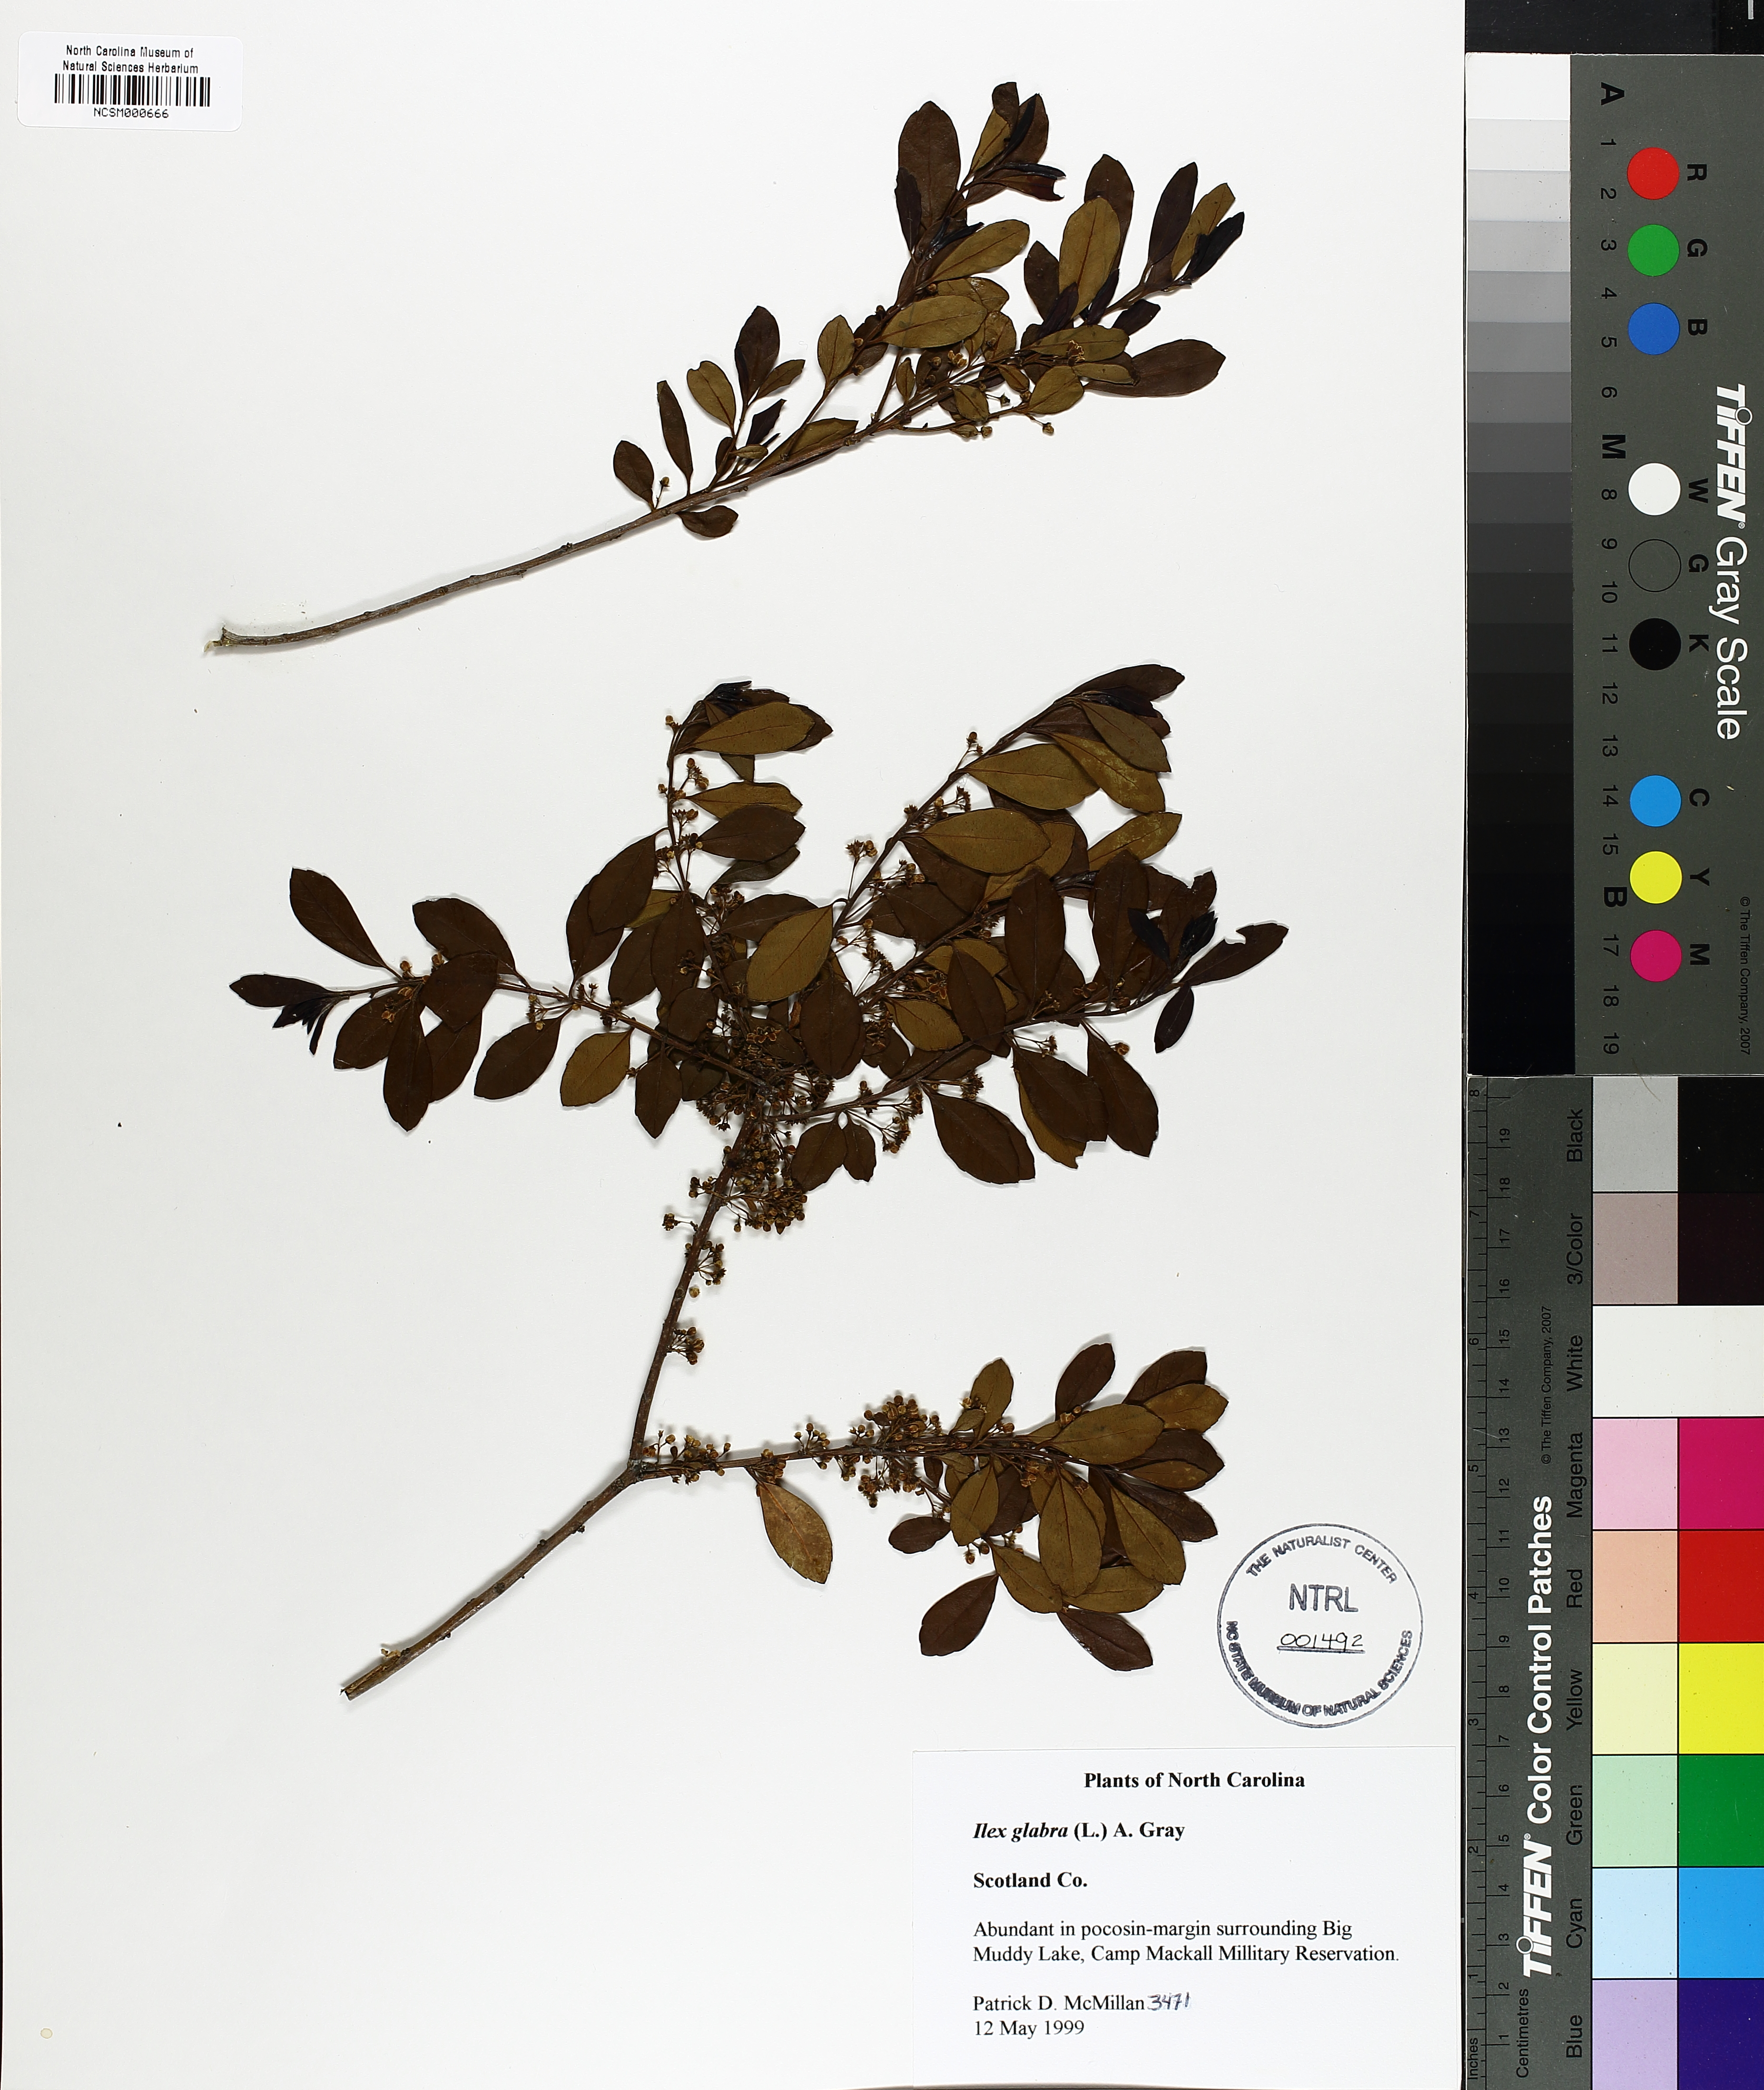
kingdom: Plantae
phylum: Tracheophyta
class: Magnoliopsida
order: Aquifoliales
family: Aquifoliaceae
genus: Ilex
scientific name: Ilex glabra
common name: Bitter gallberry
